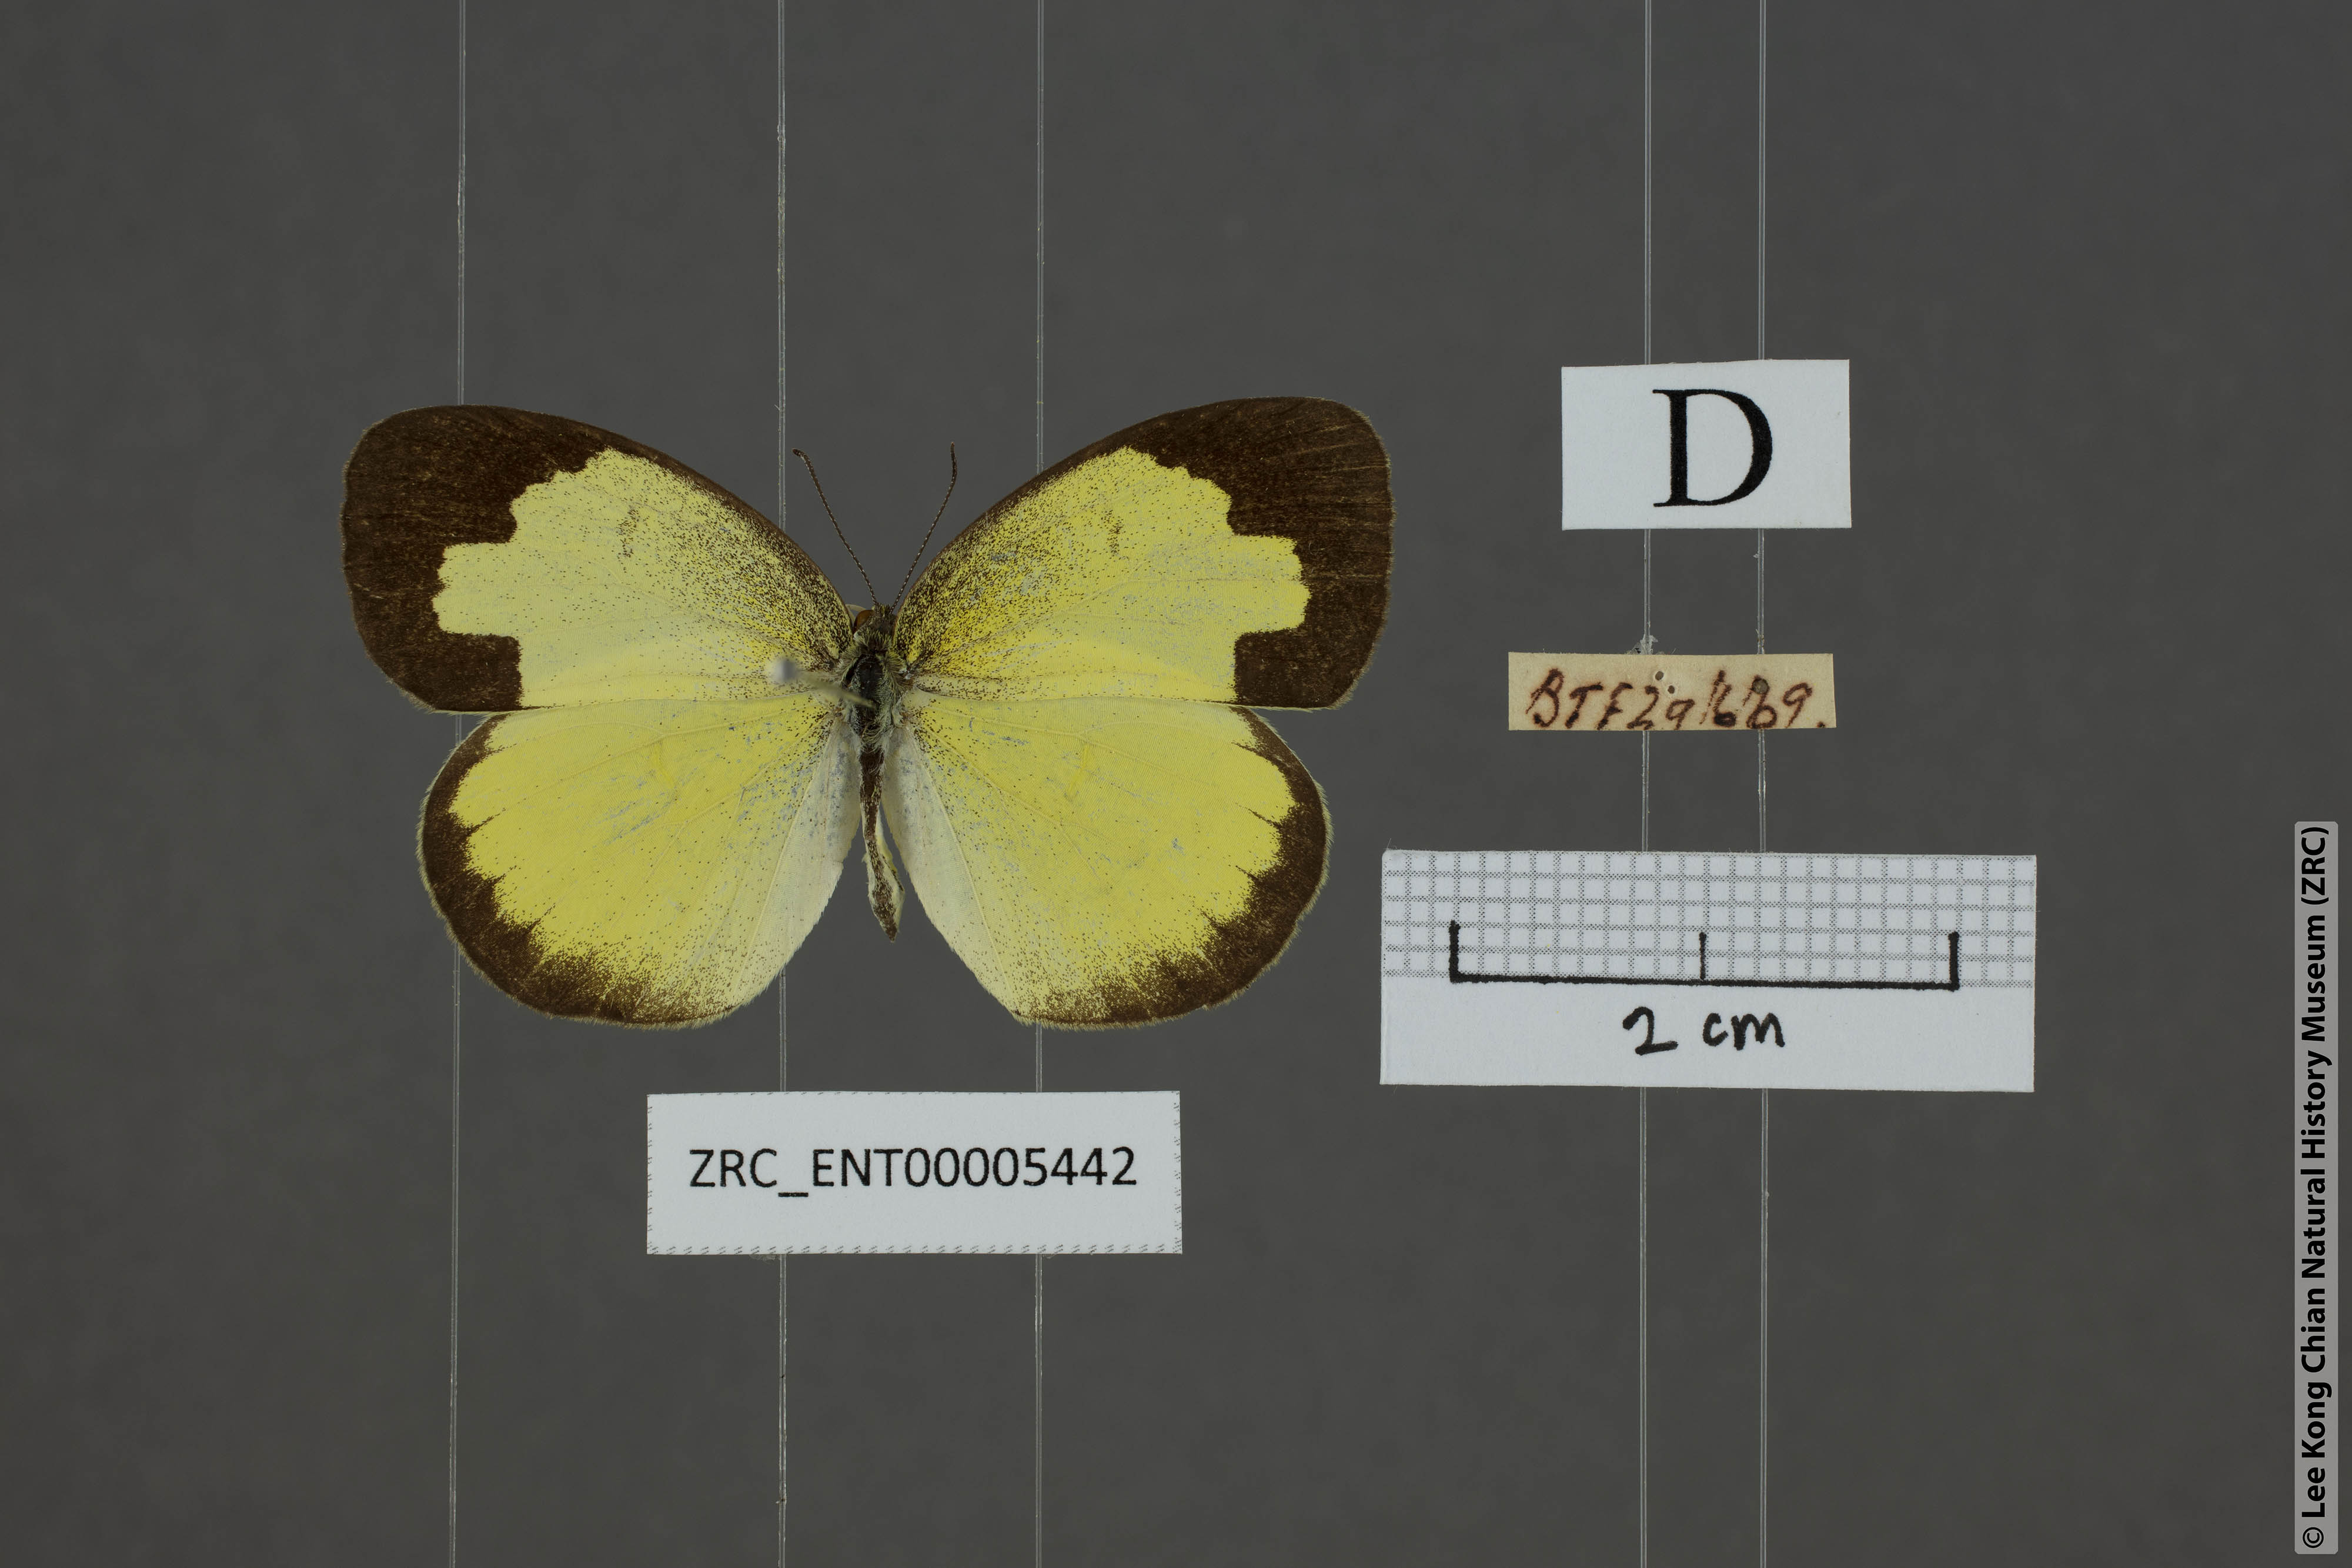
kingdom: Animalia
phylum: Arthropoda
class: Insecta
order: Lepidoptera
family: Pieridae
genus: Eurema
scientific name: Eurema hecabe
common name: Pale grass yellow
